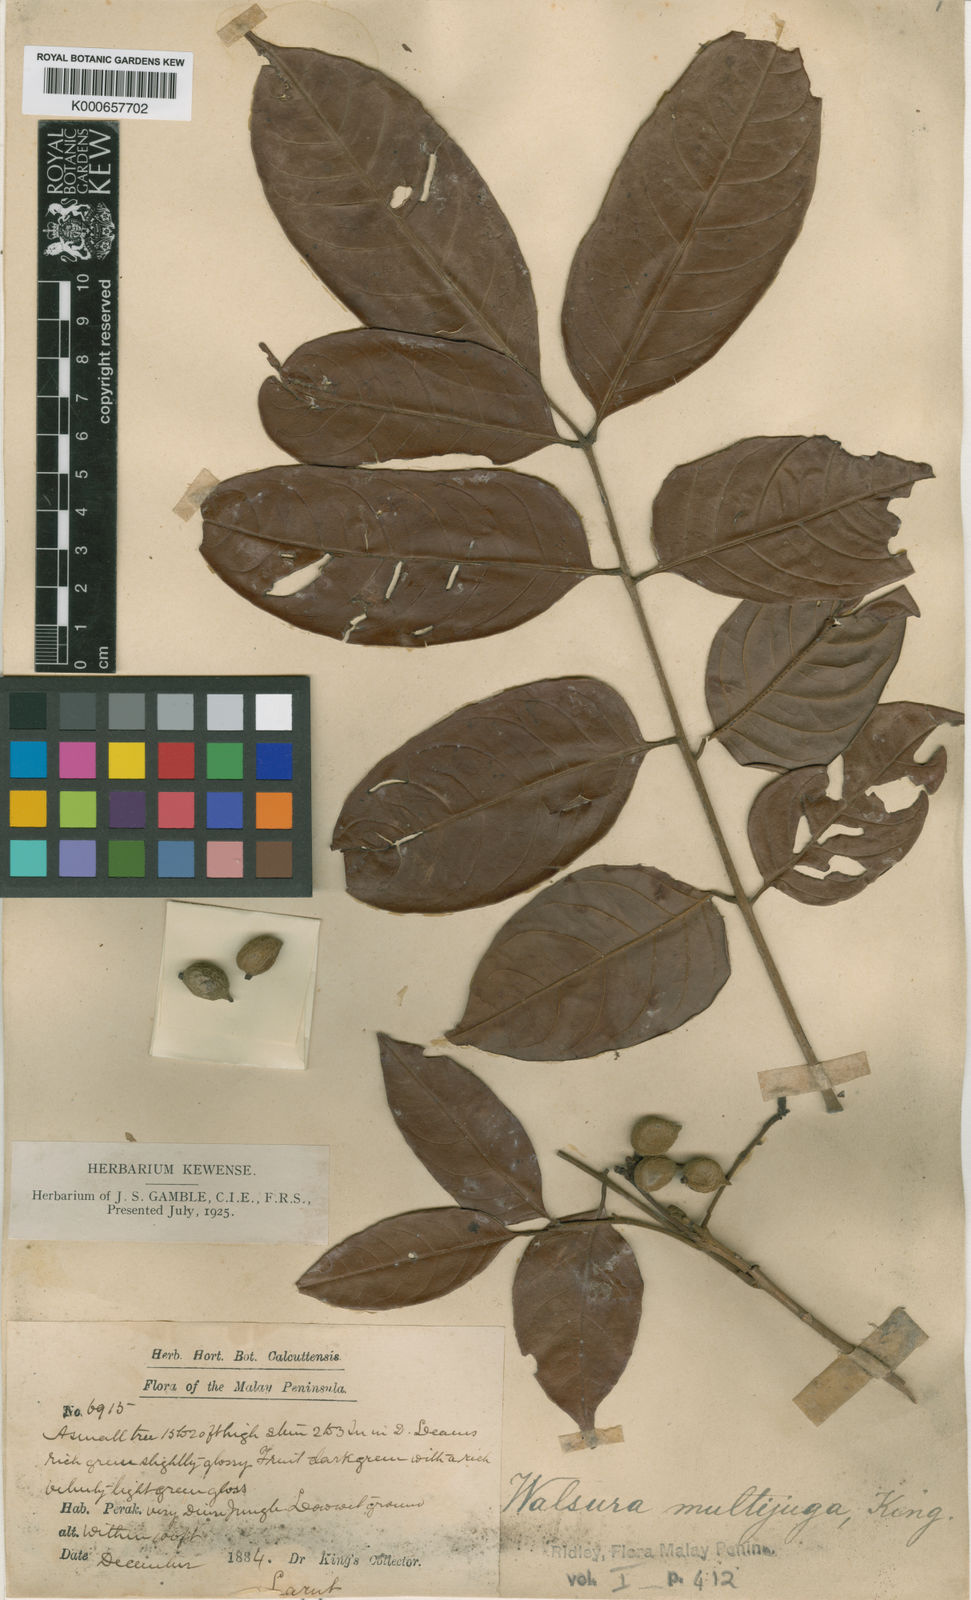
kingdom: Plantae
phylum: Tracheophyta
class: Magnoliopsida
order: Sapindales
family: Meliaceae
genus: Walsura
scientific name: Walsura
